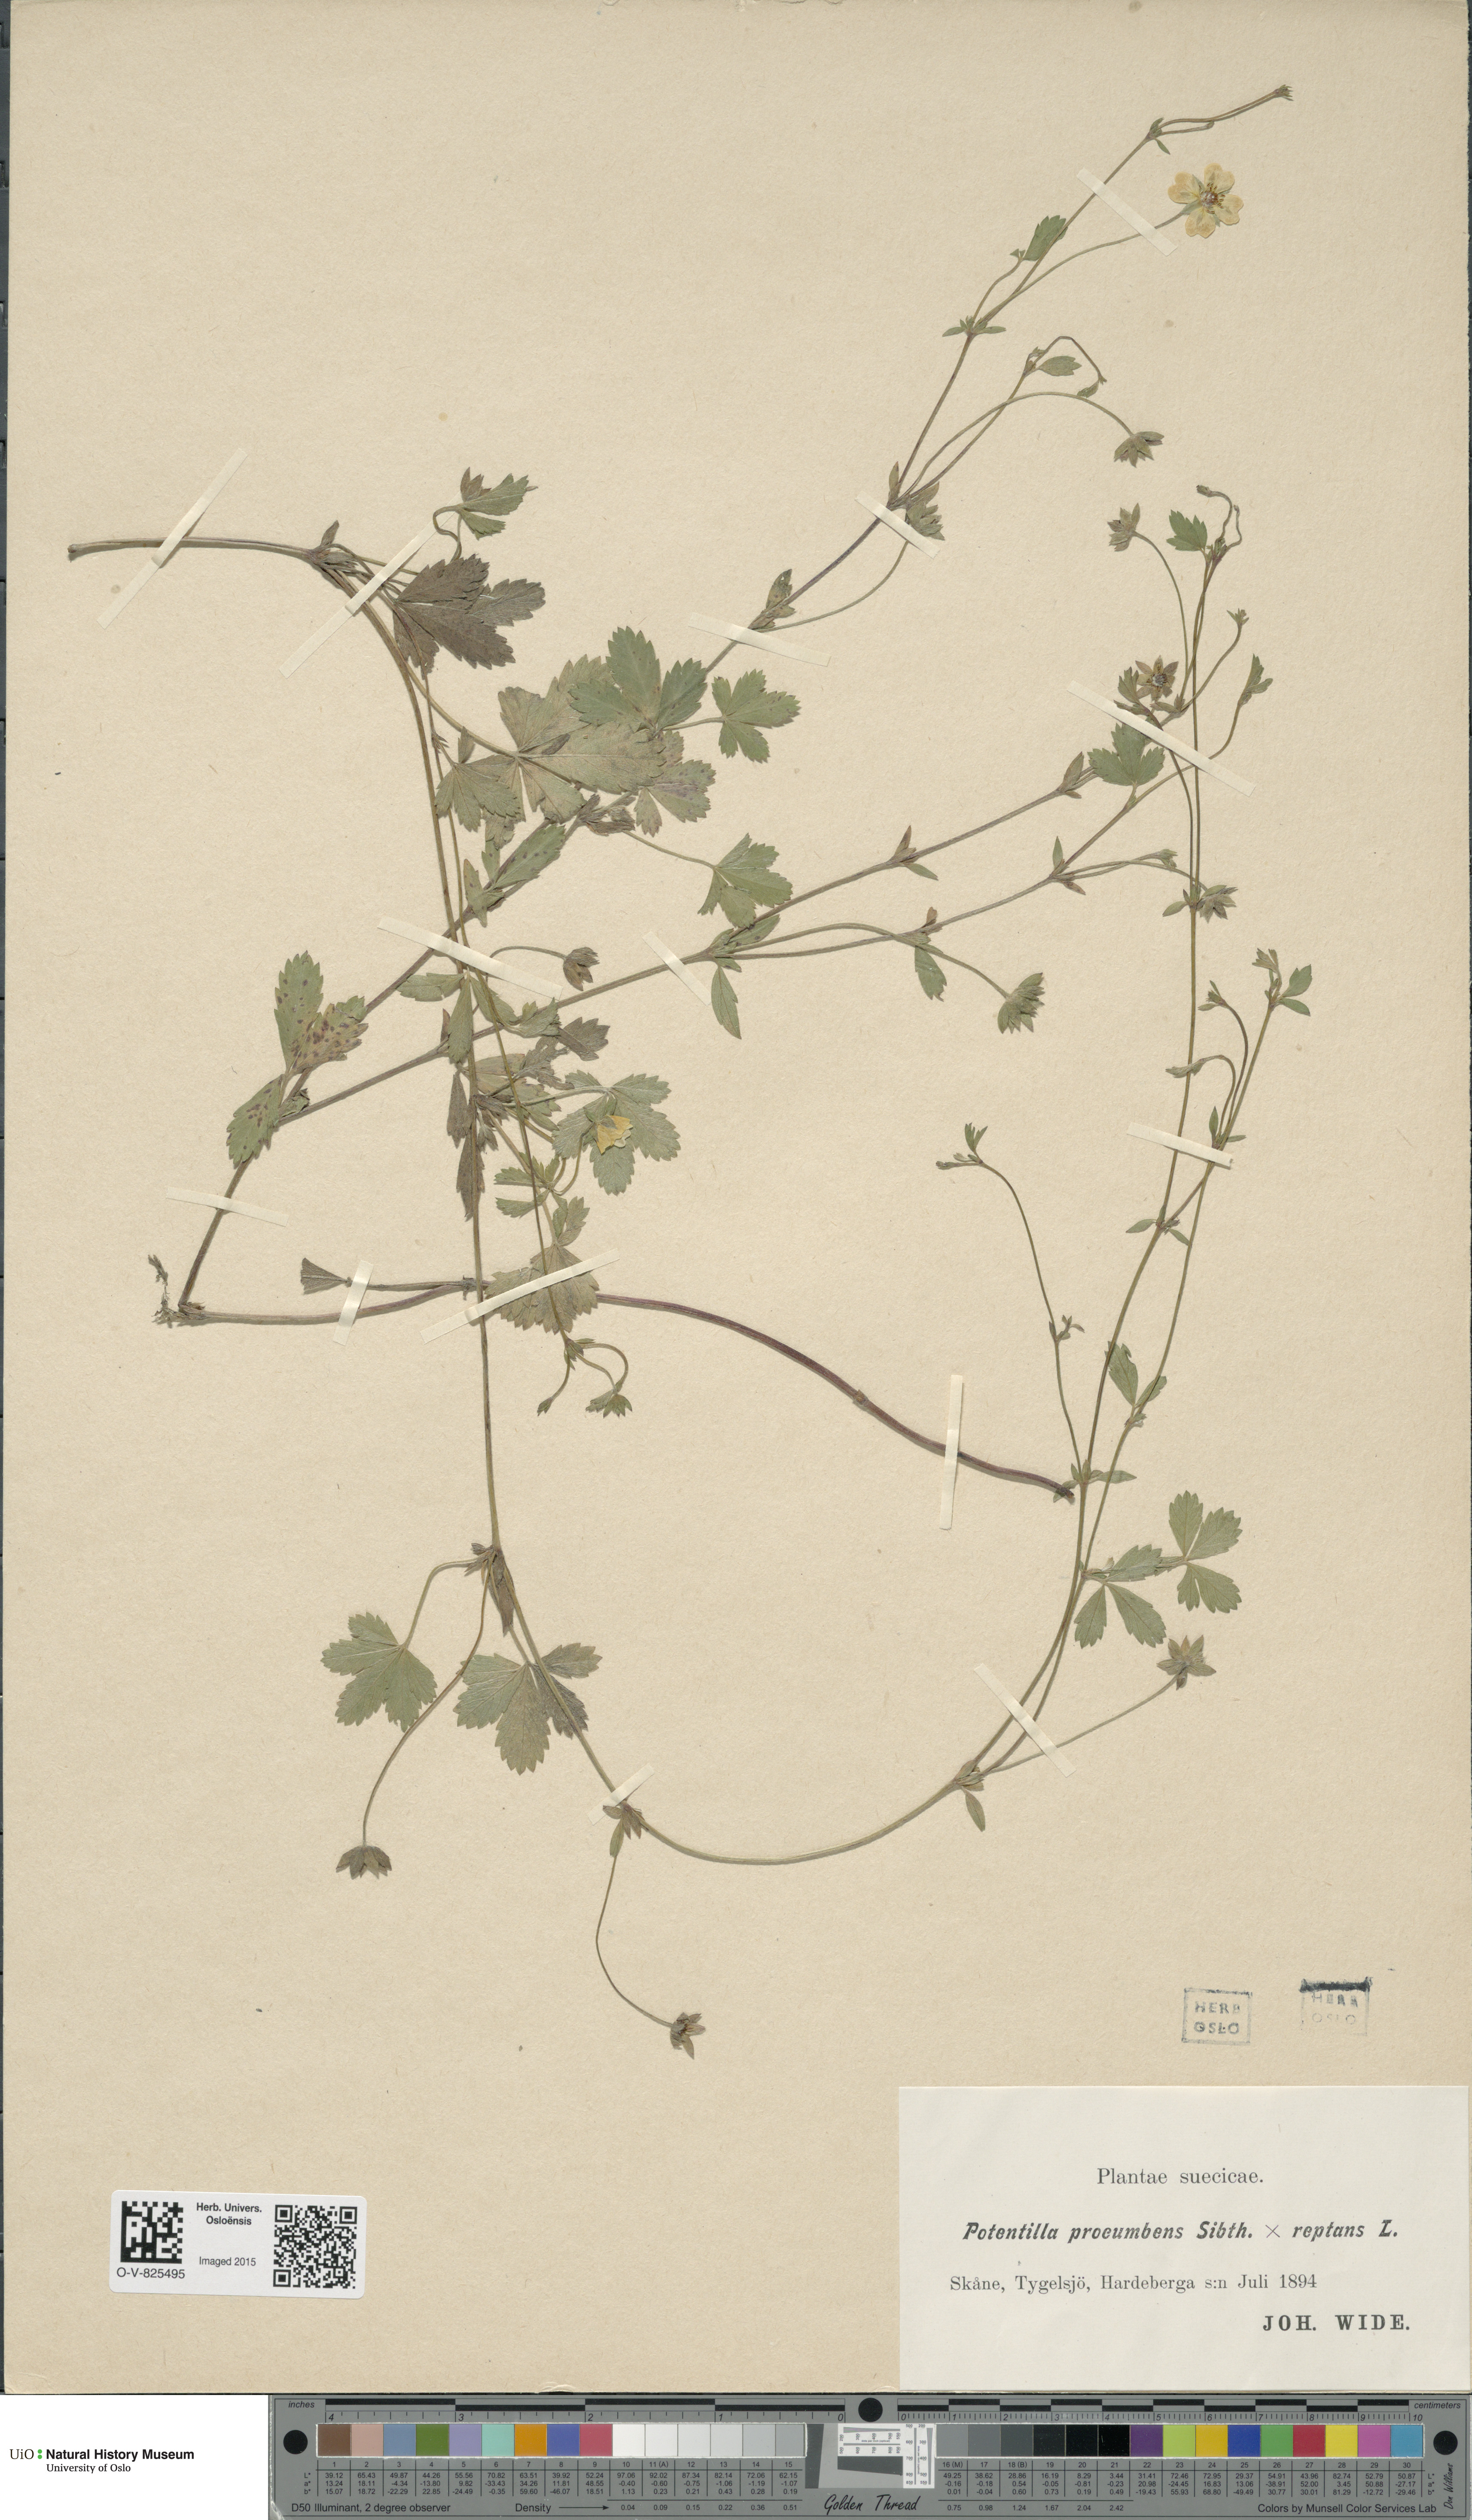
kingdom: Plantae
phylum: Tracheophyta
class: Magnoliopsida
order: Rosales
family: Rosaceae
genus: Potentilla
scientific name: Potentilla
